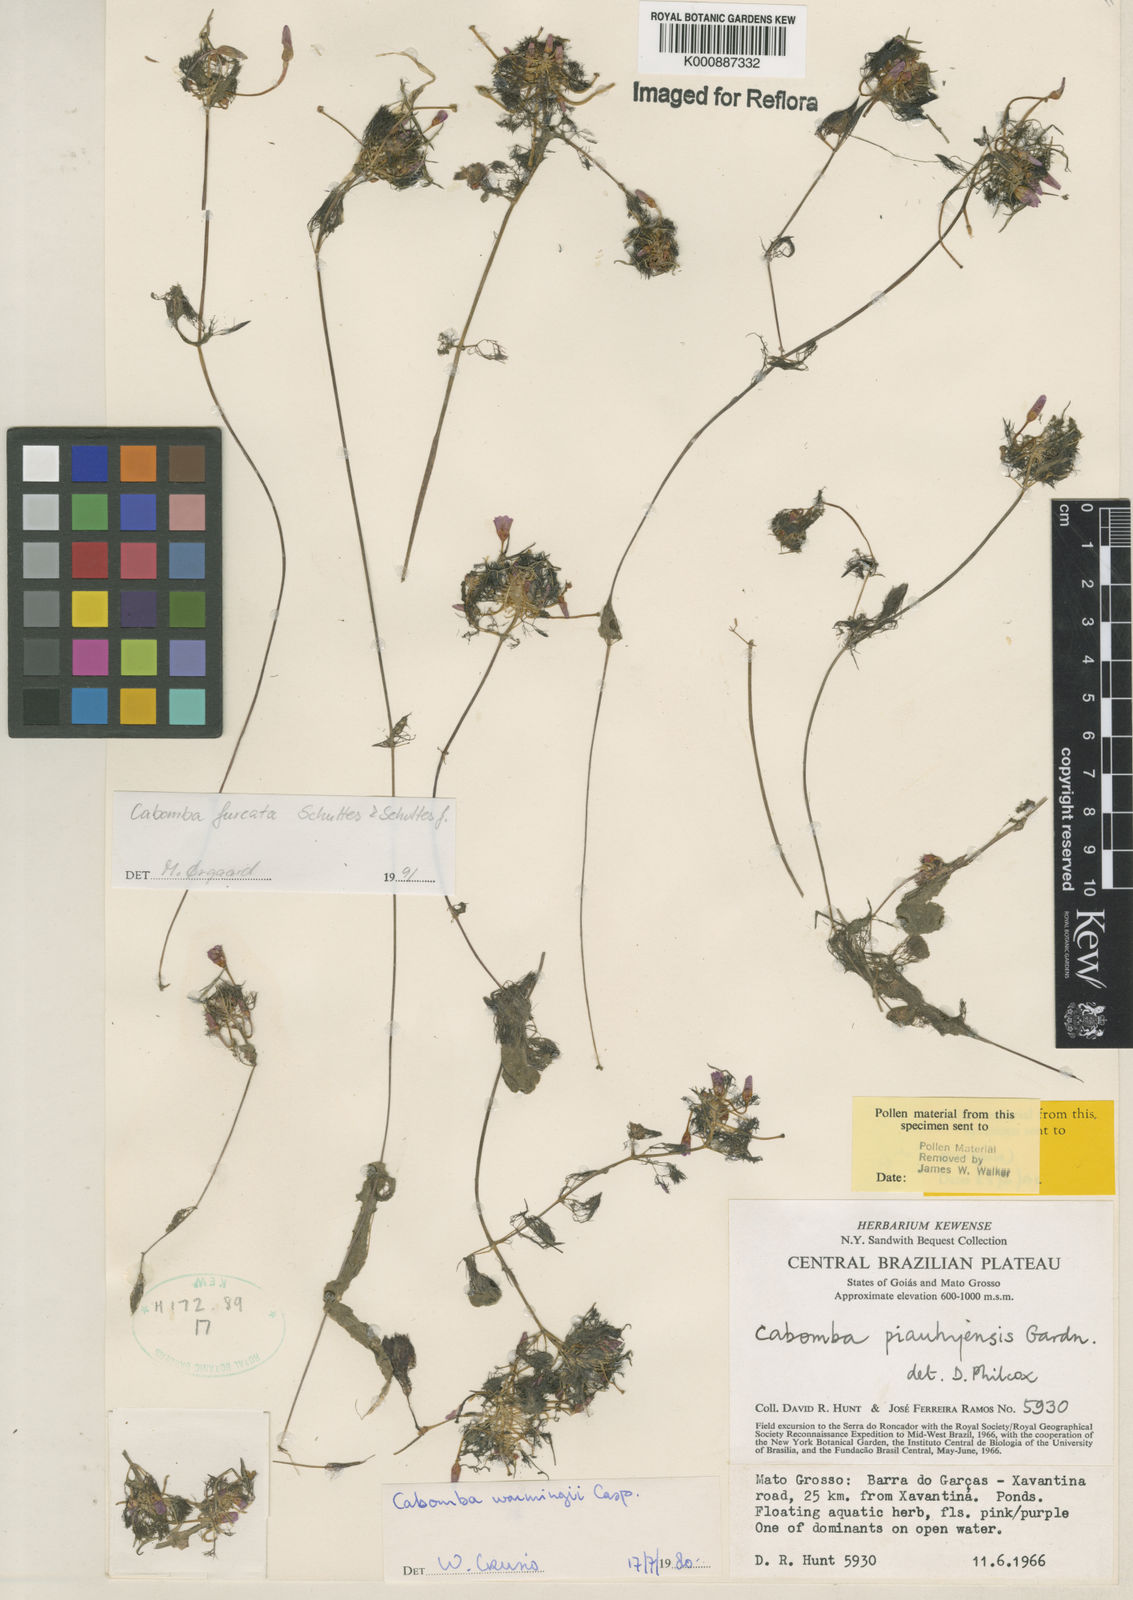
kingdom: Plantae
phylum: Tracheophyta
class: Magnoliopsida
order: Nymphaeales
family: Cabombaceae
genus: Cabomba
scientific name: Cabomba furcata
